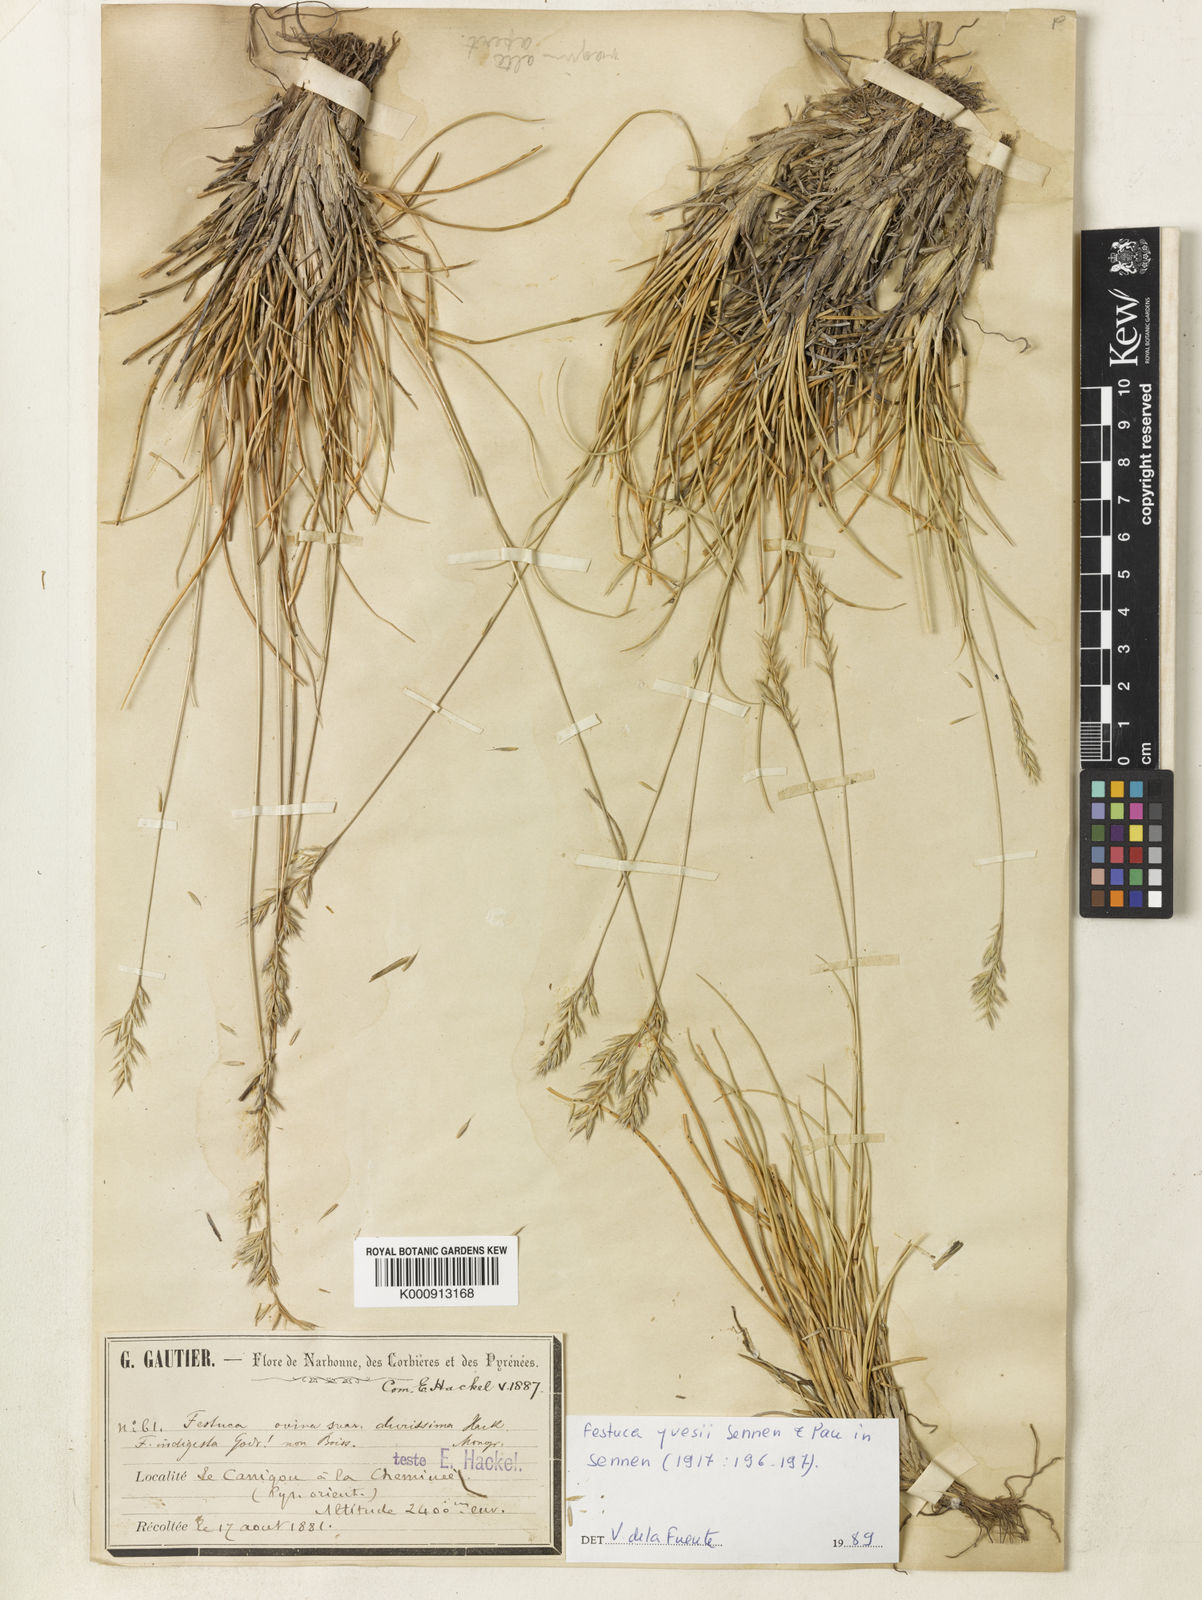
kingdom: Plantae
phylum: Tracheophyta
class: Liliopsida
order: Poales
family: Poaceae
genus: Festuca
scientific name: Festuca
